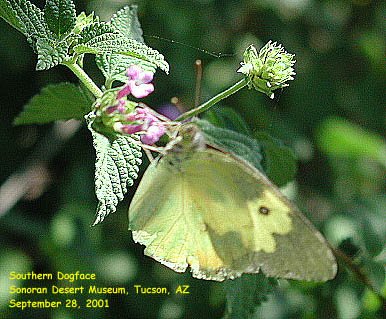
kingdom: Animalia
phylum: Arthropoda
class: Insecta
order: Lepidoptera
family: Pieridae
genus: Zerene
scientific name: Zerene cesonia
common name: Southern Dogface
